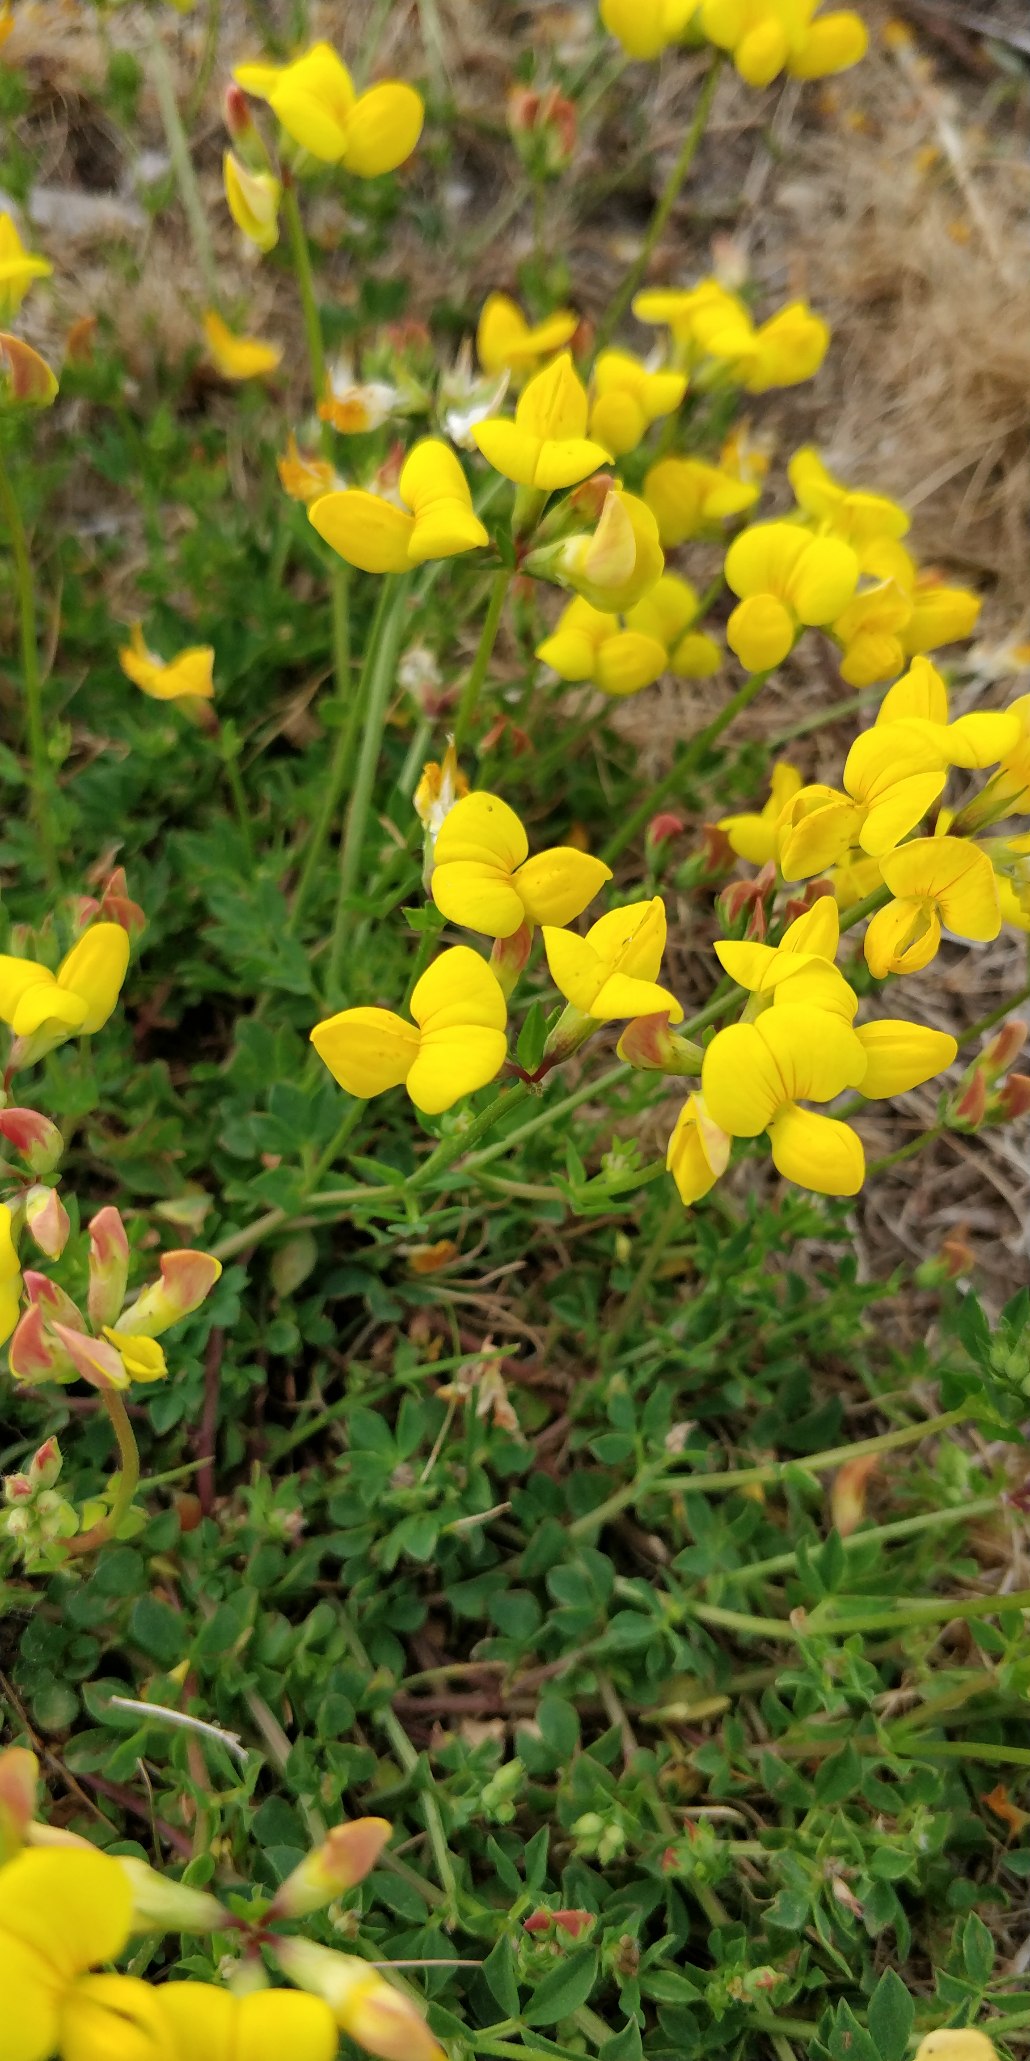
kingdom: Plantae
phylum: Tracheophyta
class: Magnoliopsida
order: Fabales
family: Fabaceae
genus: Lotus
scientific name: Lotus corniculatus
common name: Almindelig kællingetand
